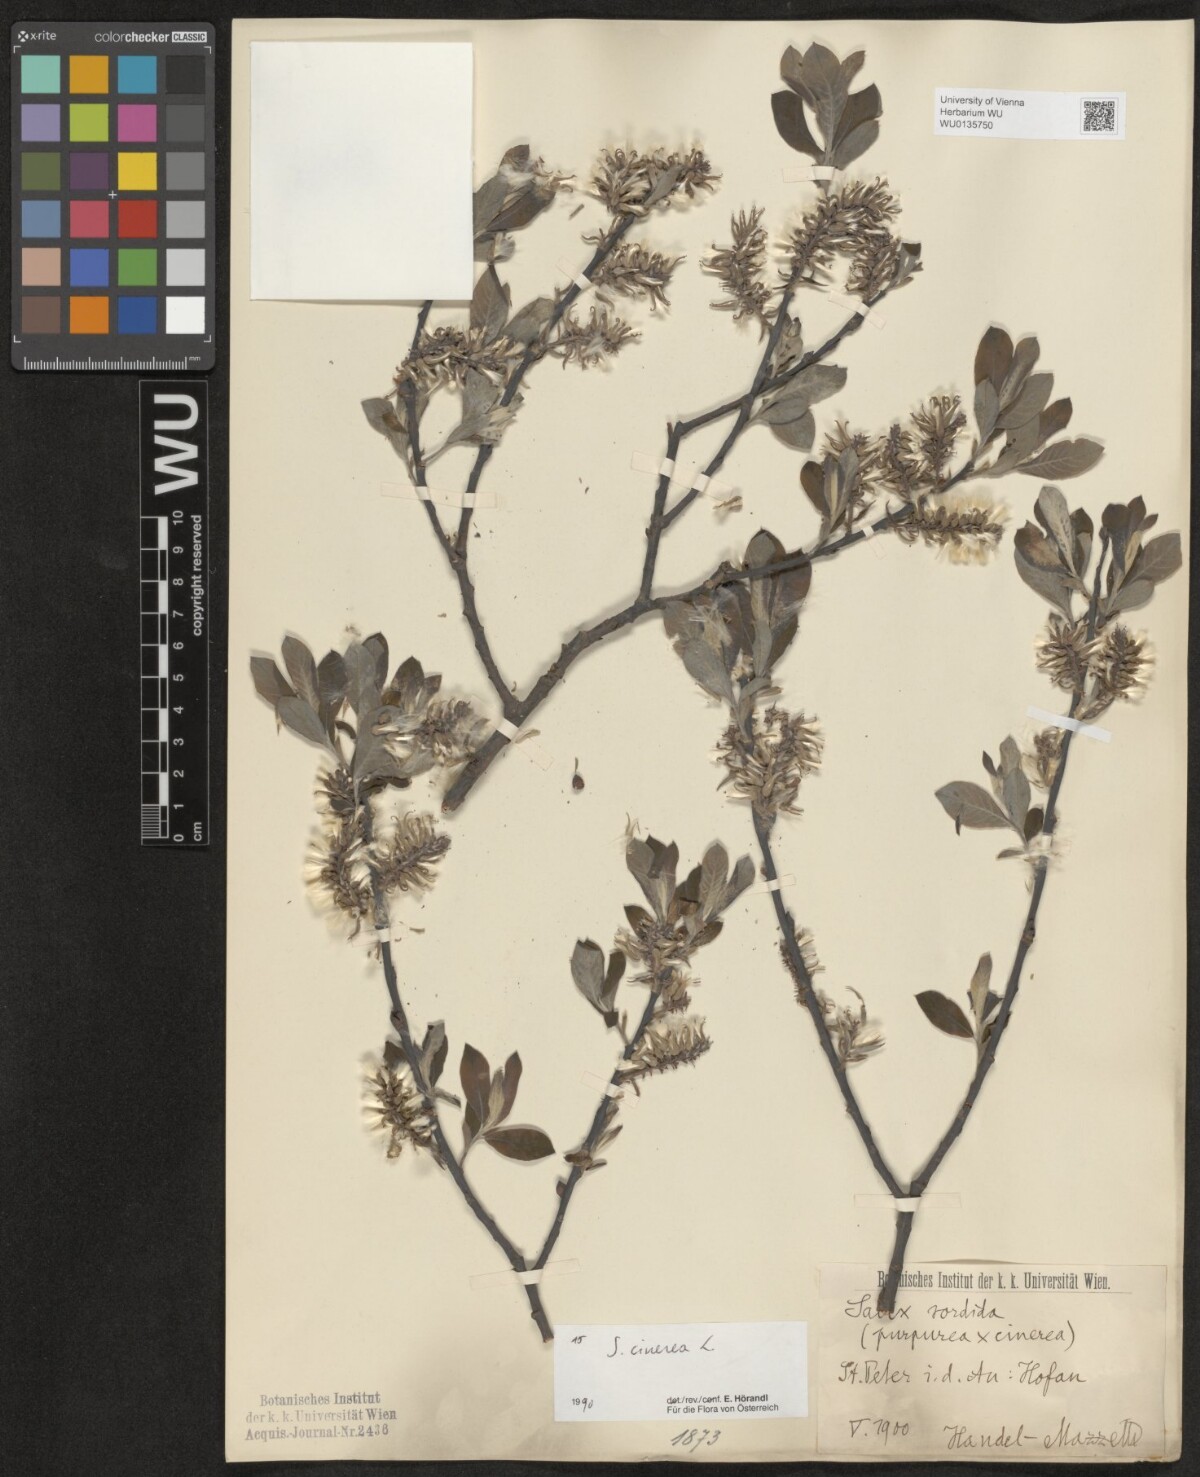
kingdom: Plantae
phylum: Tracheophyta
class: Magnoliopsida
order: Malpighiales
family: Salicaceae
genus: Salix
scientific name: Salix cinerea
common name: Common sallow
